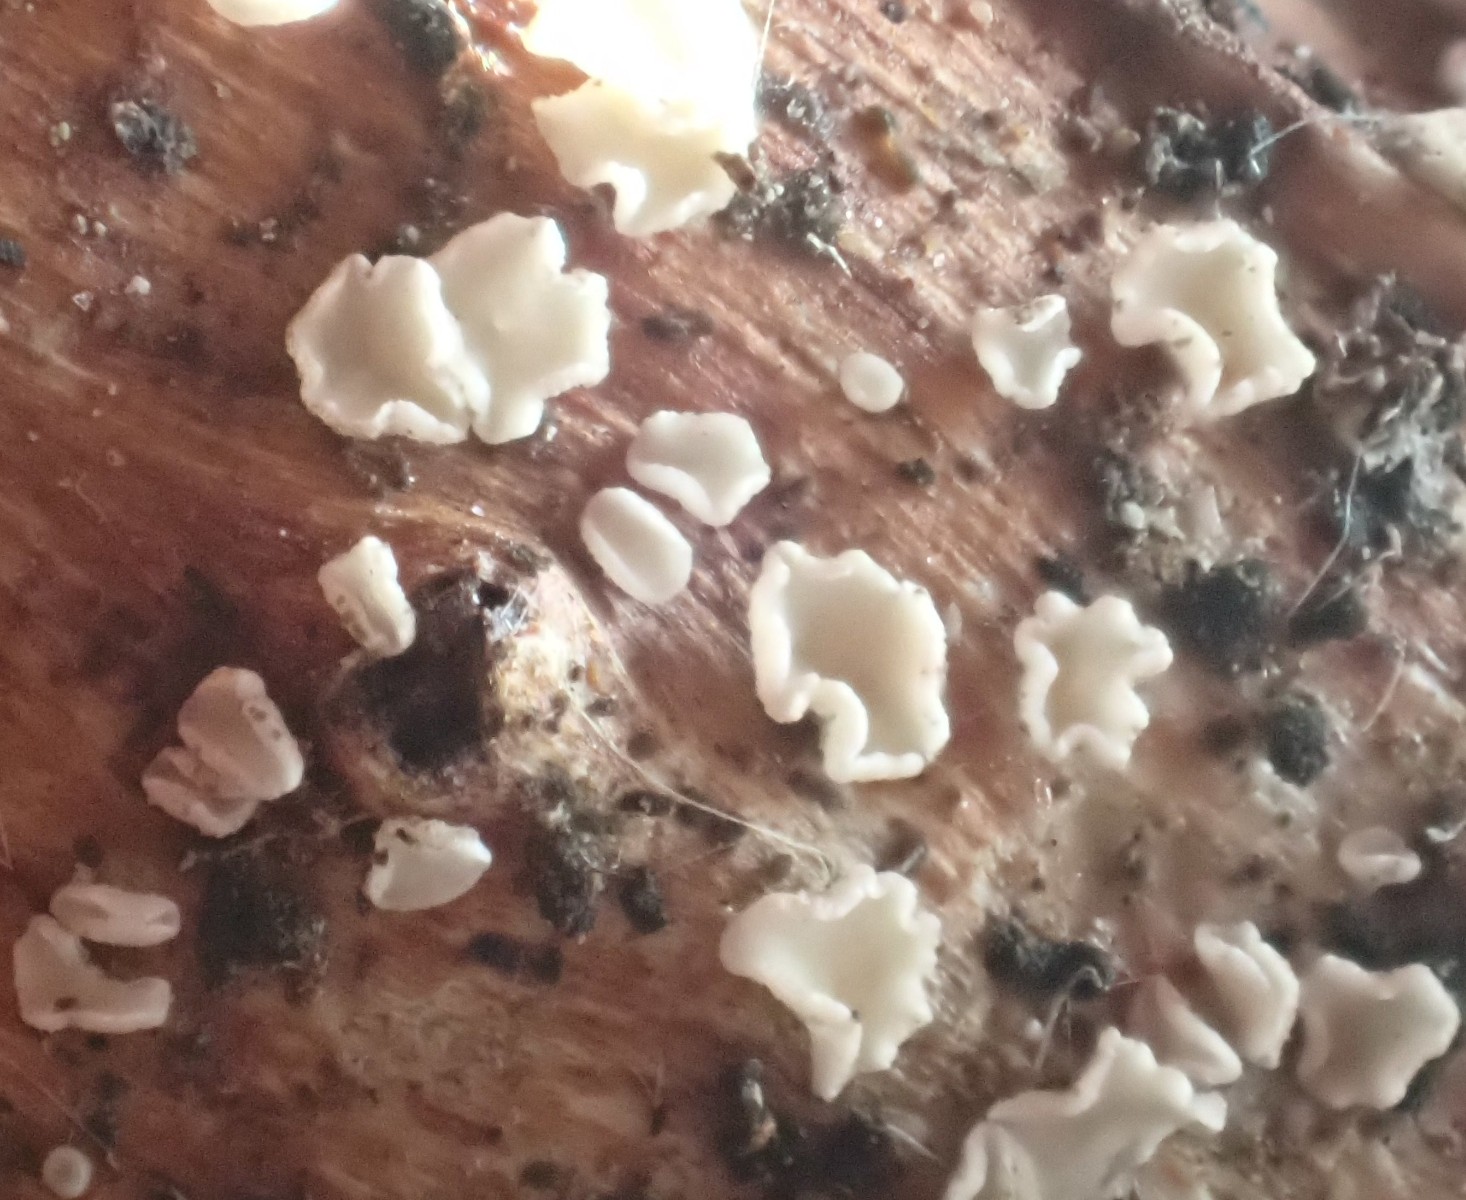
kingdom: Fungi
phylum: Ascomycota
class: Leotiomycetes
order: Helotiales
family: Pezizellaceae
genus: Calycina
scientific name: Calycina vulgaris
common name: pølsesporet gulskive
